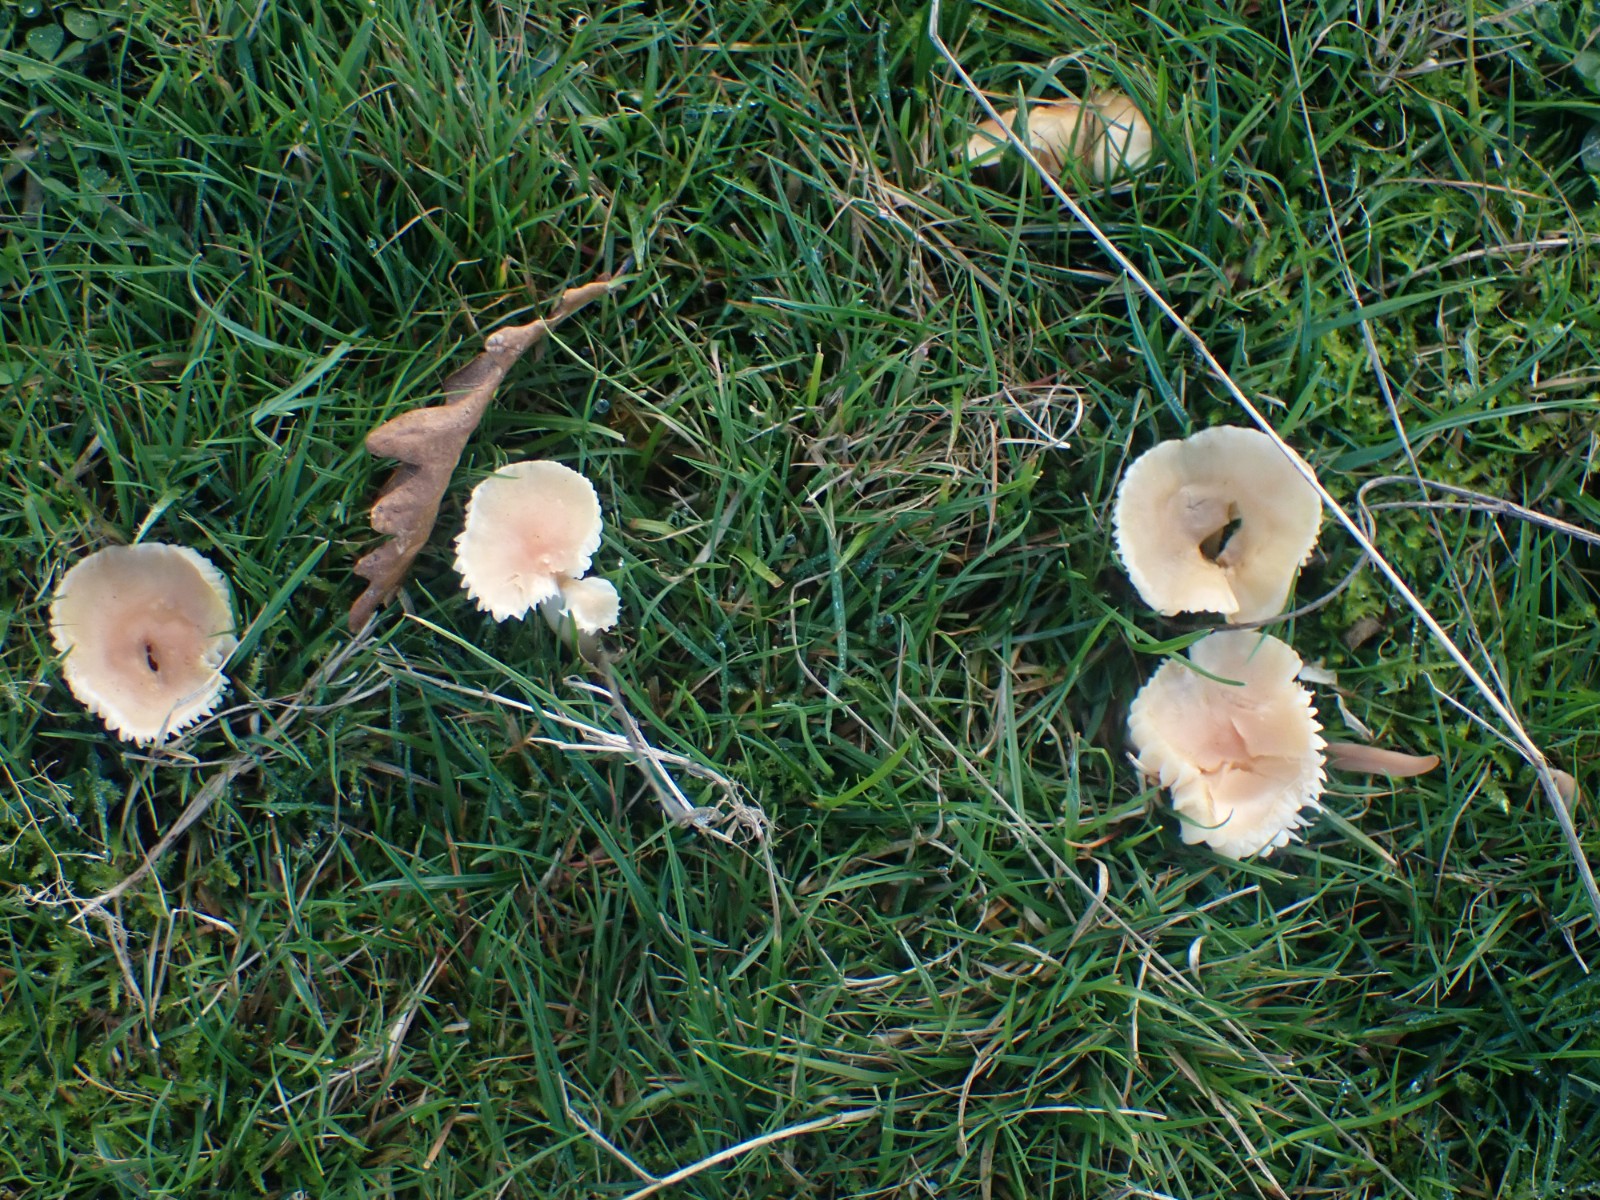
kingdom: Fungi
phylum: Basidiomycota
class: Agaricomycetes
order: Agaricales
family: Hygrophoraceae
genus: Cuphophyllus
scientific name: Cuphophyllus pratensis
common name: eng-vokshat
